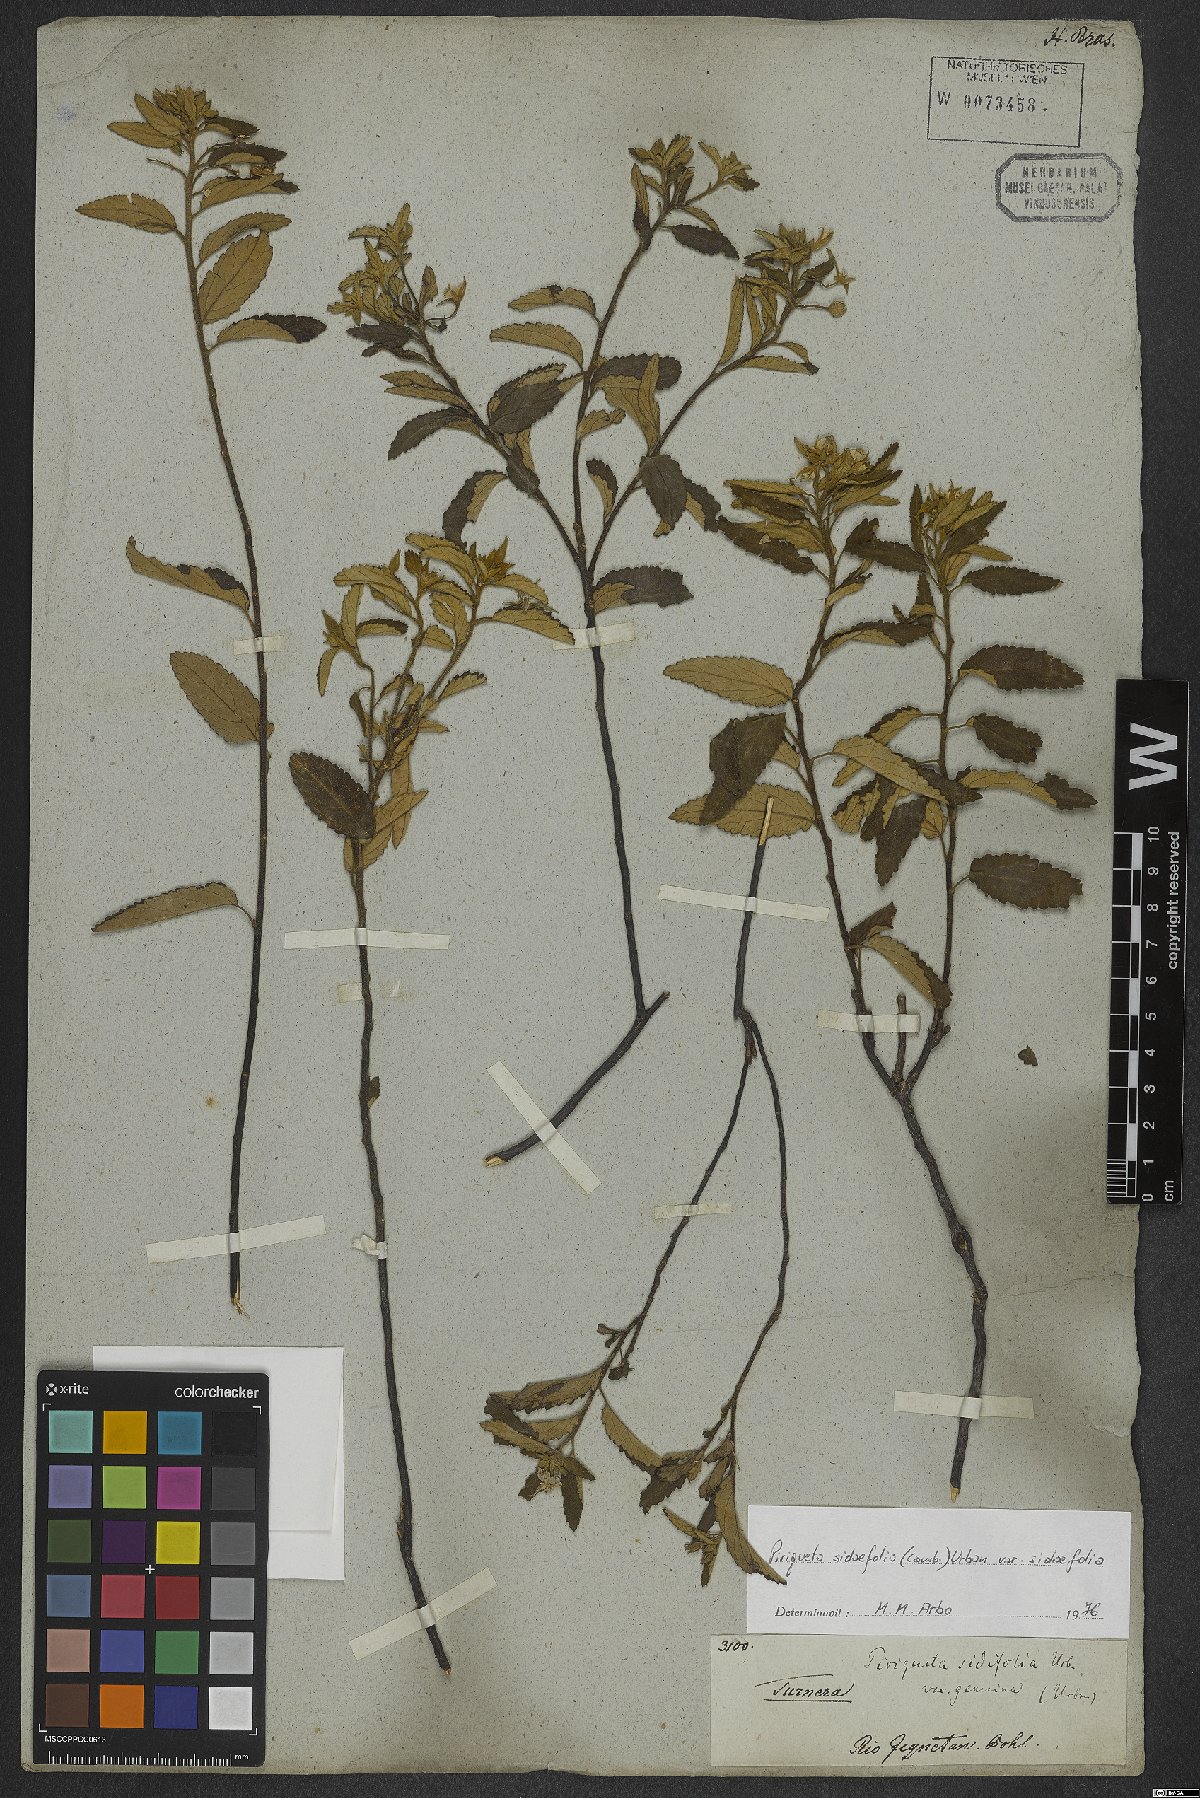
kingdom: Plantae
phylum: Tracheophyta
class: Magnoliopsida
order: Malpighiales
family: Turneraceae
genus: Piriqueta
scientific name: Piriqueta sidifolia
